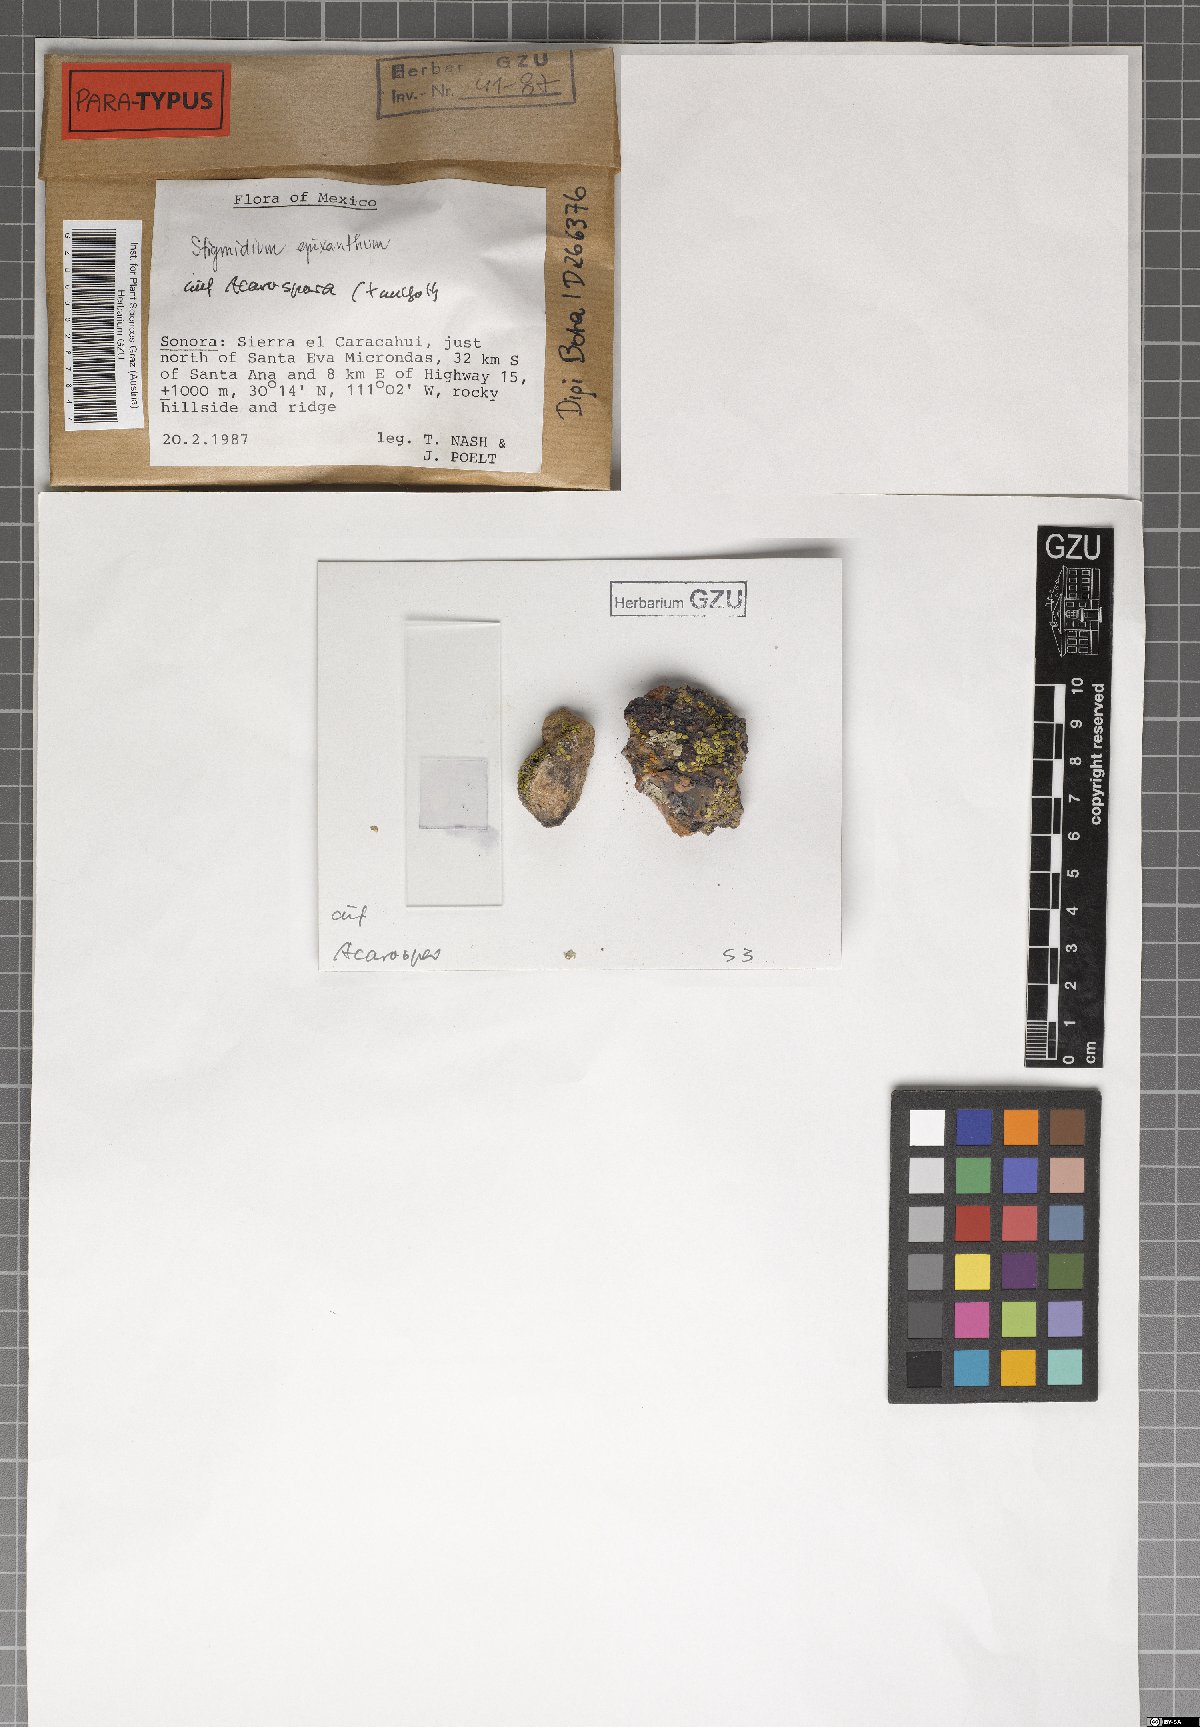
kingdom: Fungi
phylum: Ascomycota
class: Dothideomycetes
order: Mycosphaerellales
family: Mycosphaerellaceae
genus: Stigmidium
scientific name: Stigmidium epixanthum
